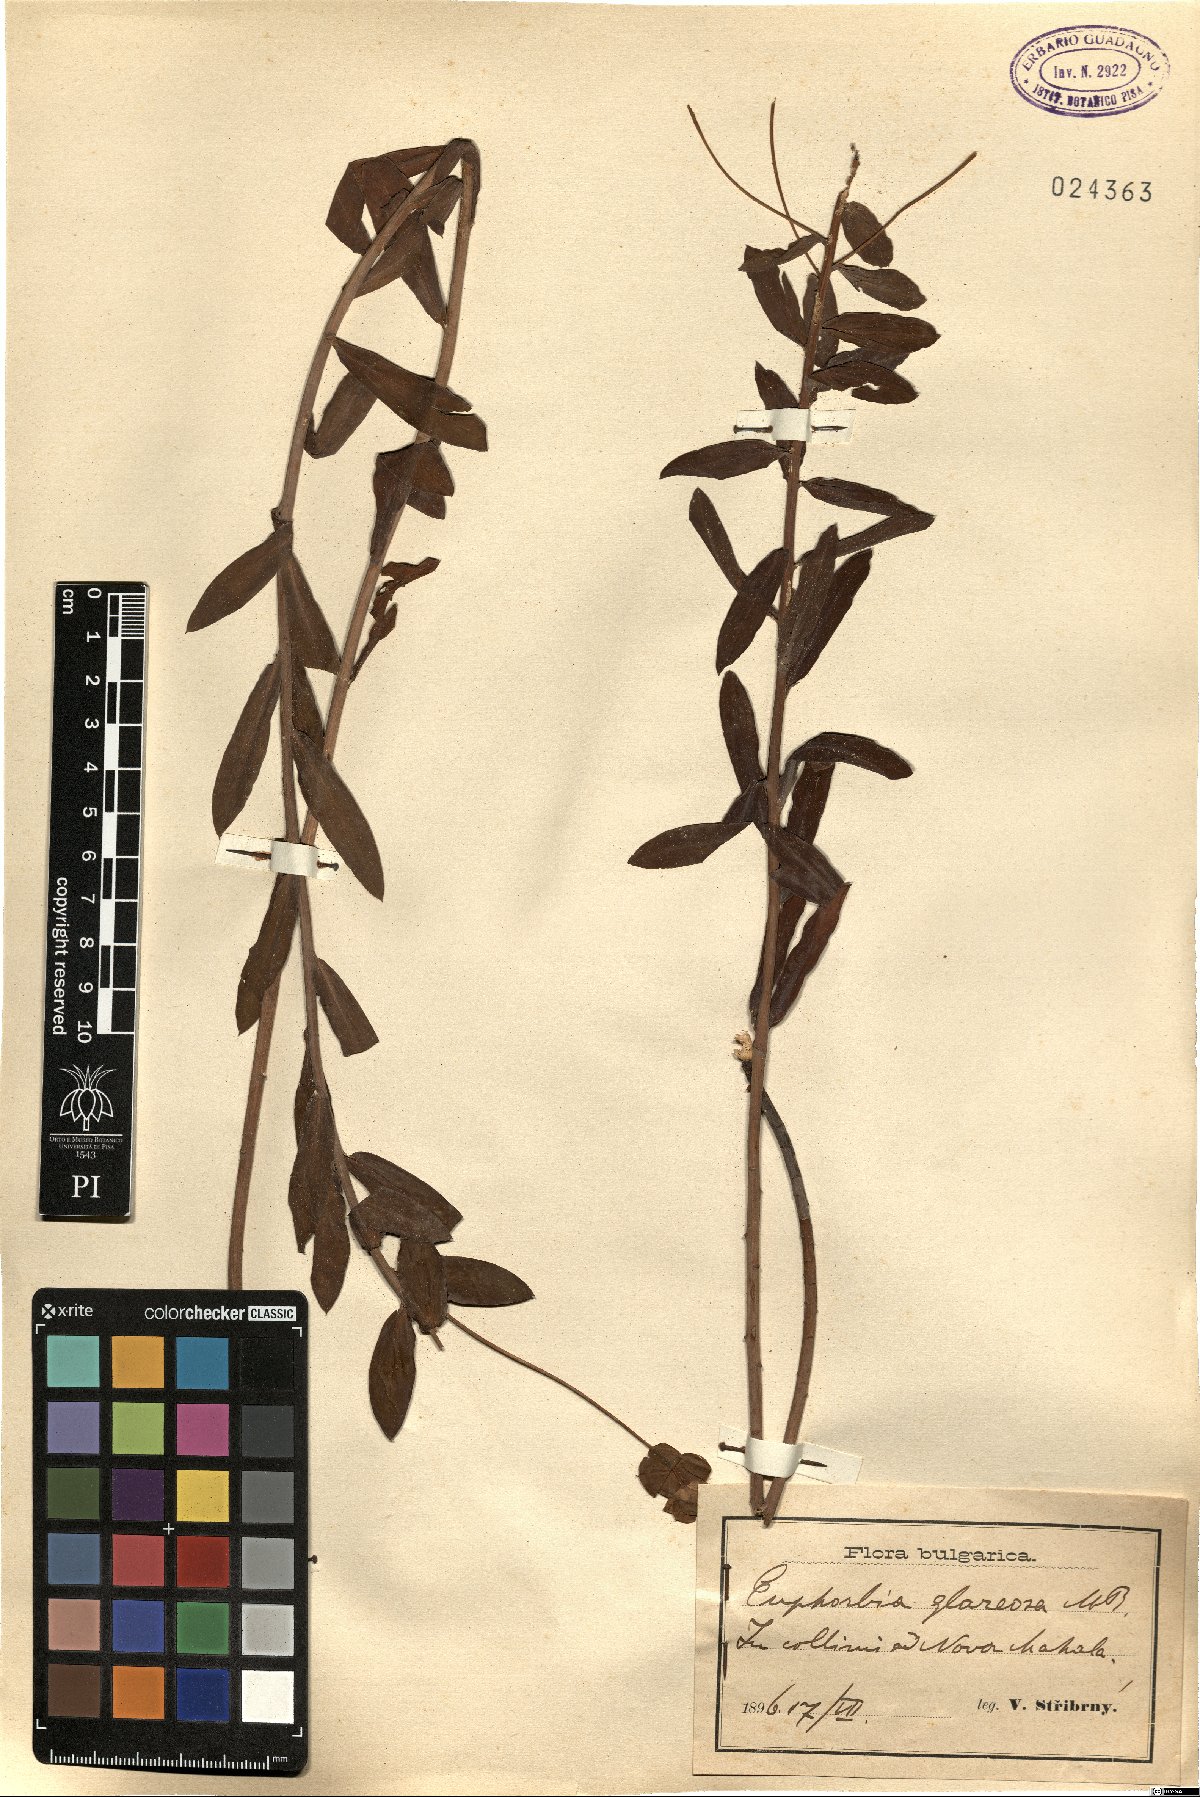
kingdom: Plantae
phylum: Tracheophyta
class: Magnoliopsida
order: Malpighiales
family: Euphorbiaceae
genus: Euphorbia
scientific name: Euphorbia glareosa
